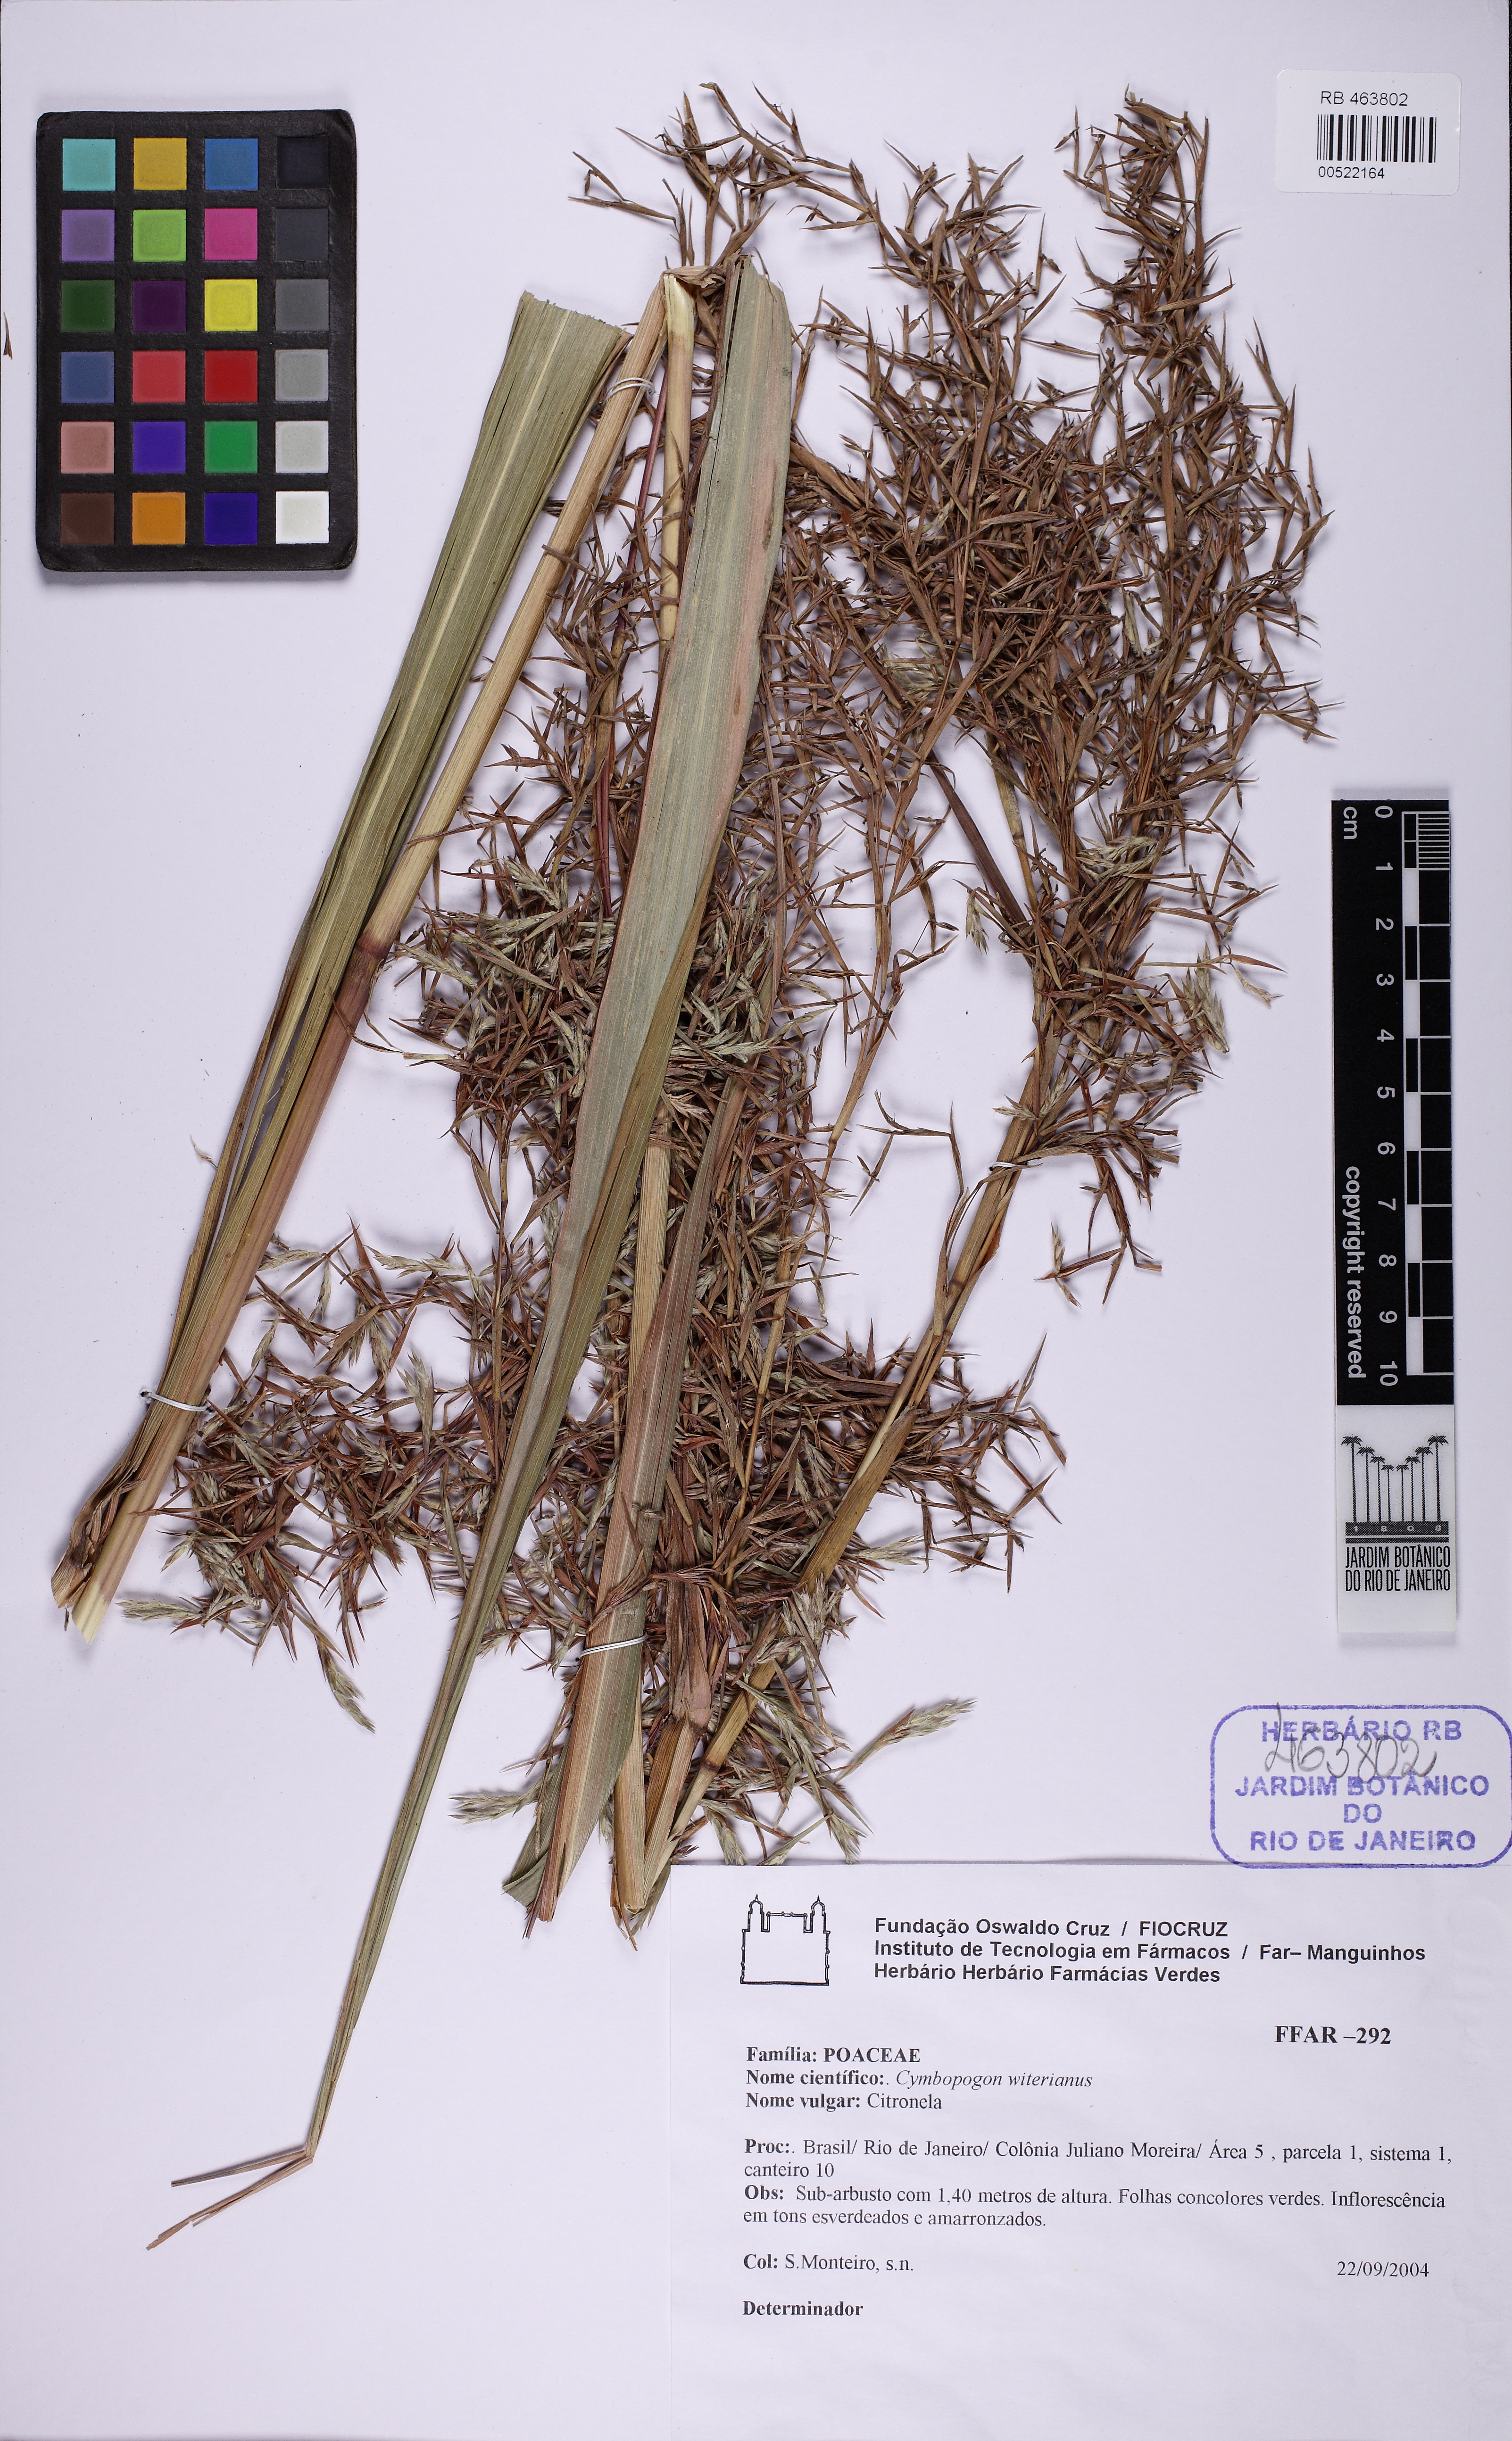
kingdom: Plantae
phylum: Tracheophyta
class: Liliopsida
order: Poales
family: Poaceae
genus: Cymbopogon
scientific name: Cymbopogon winterianus
